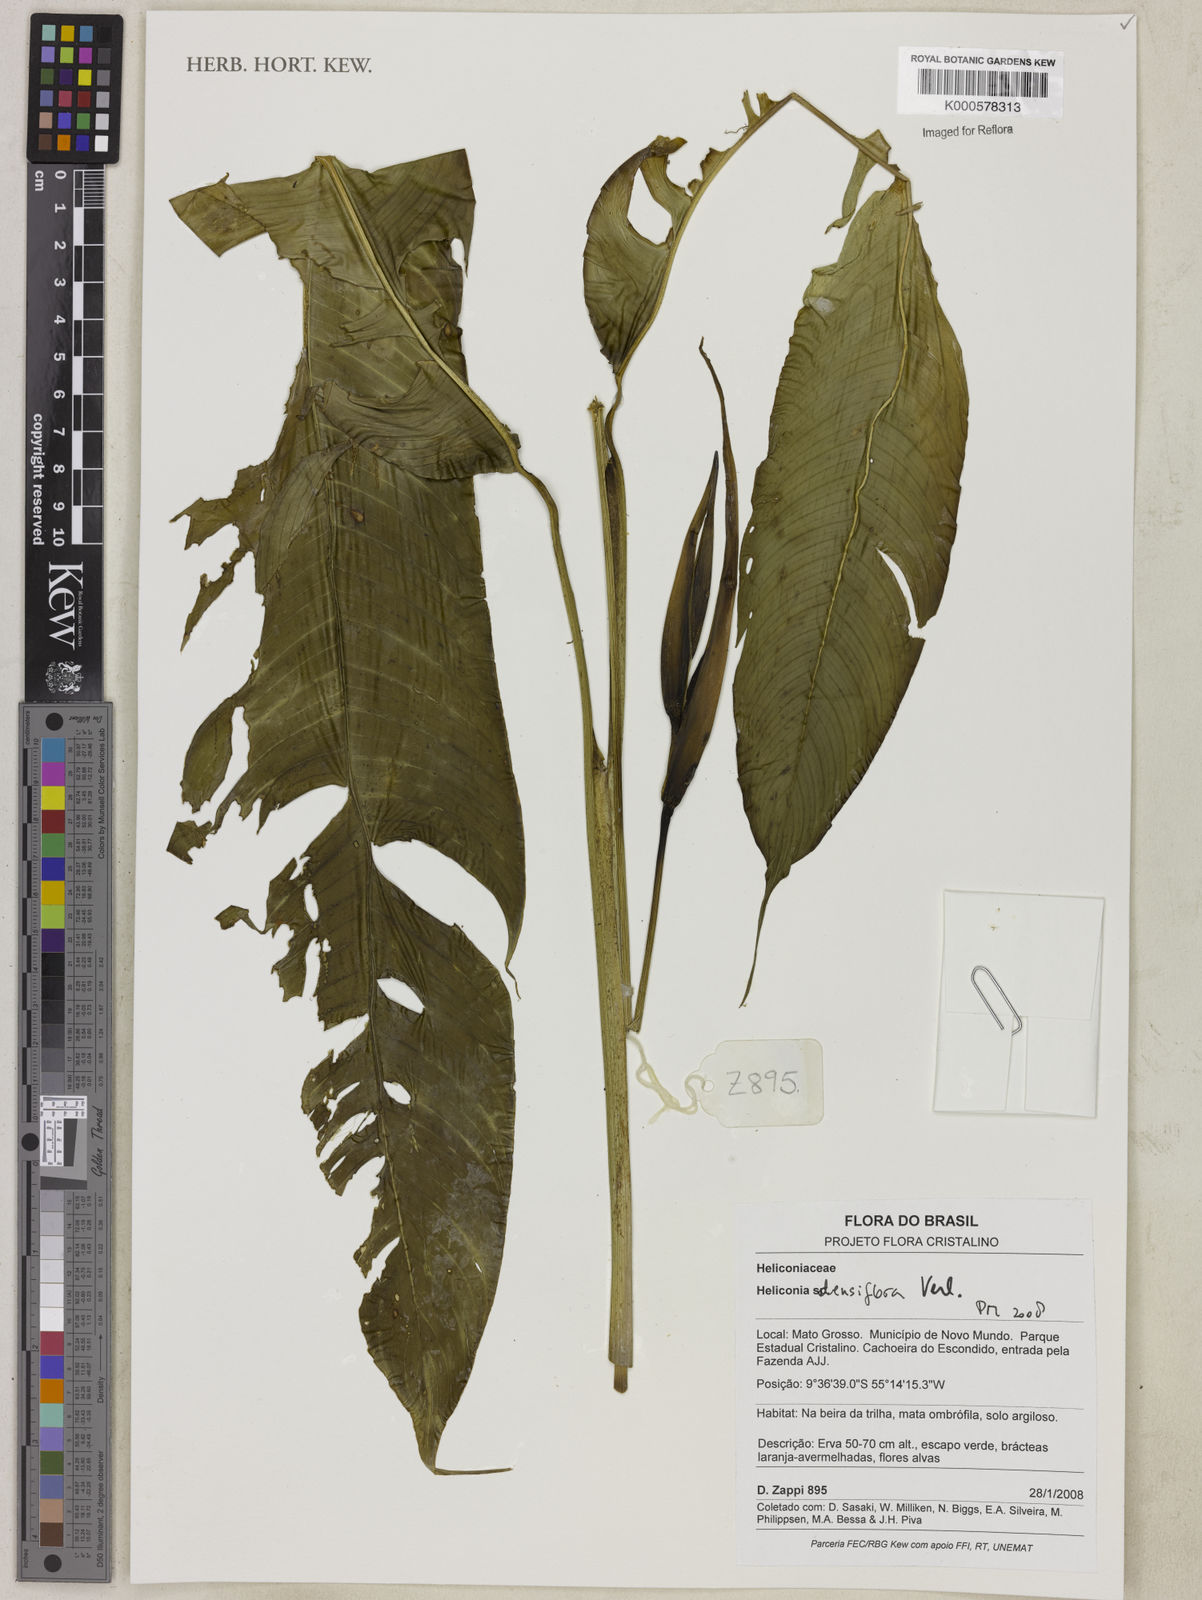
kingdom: Plantae
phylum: Tracheophyta
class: Liliopsida
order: Zingiberales
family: Heliconiaceae
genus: Heliconia
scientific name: Heliconia densiflora
